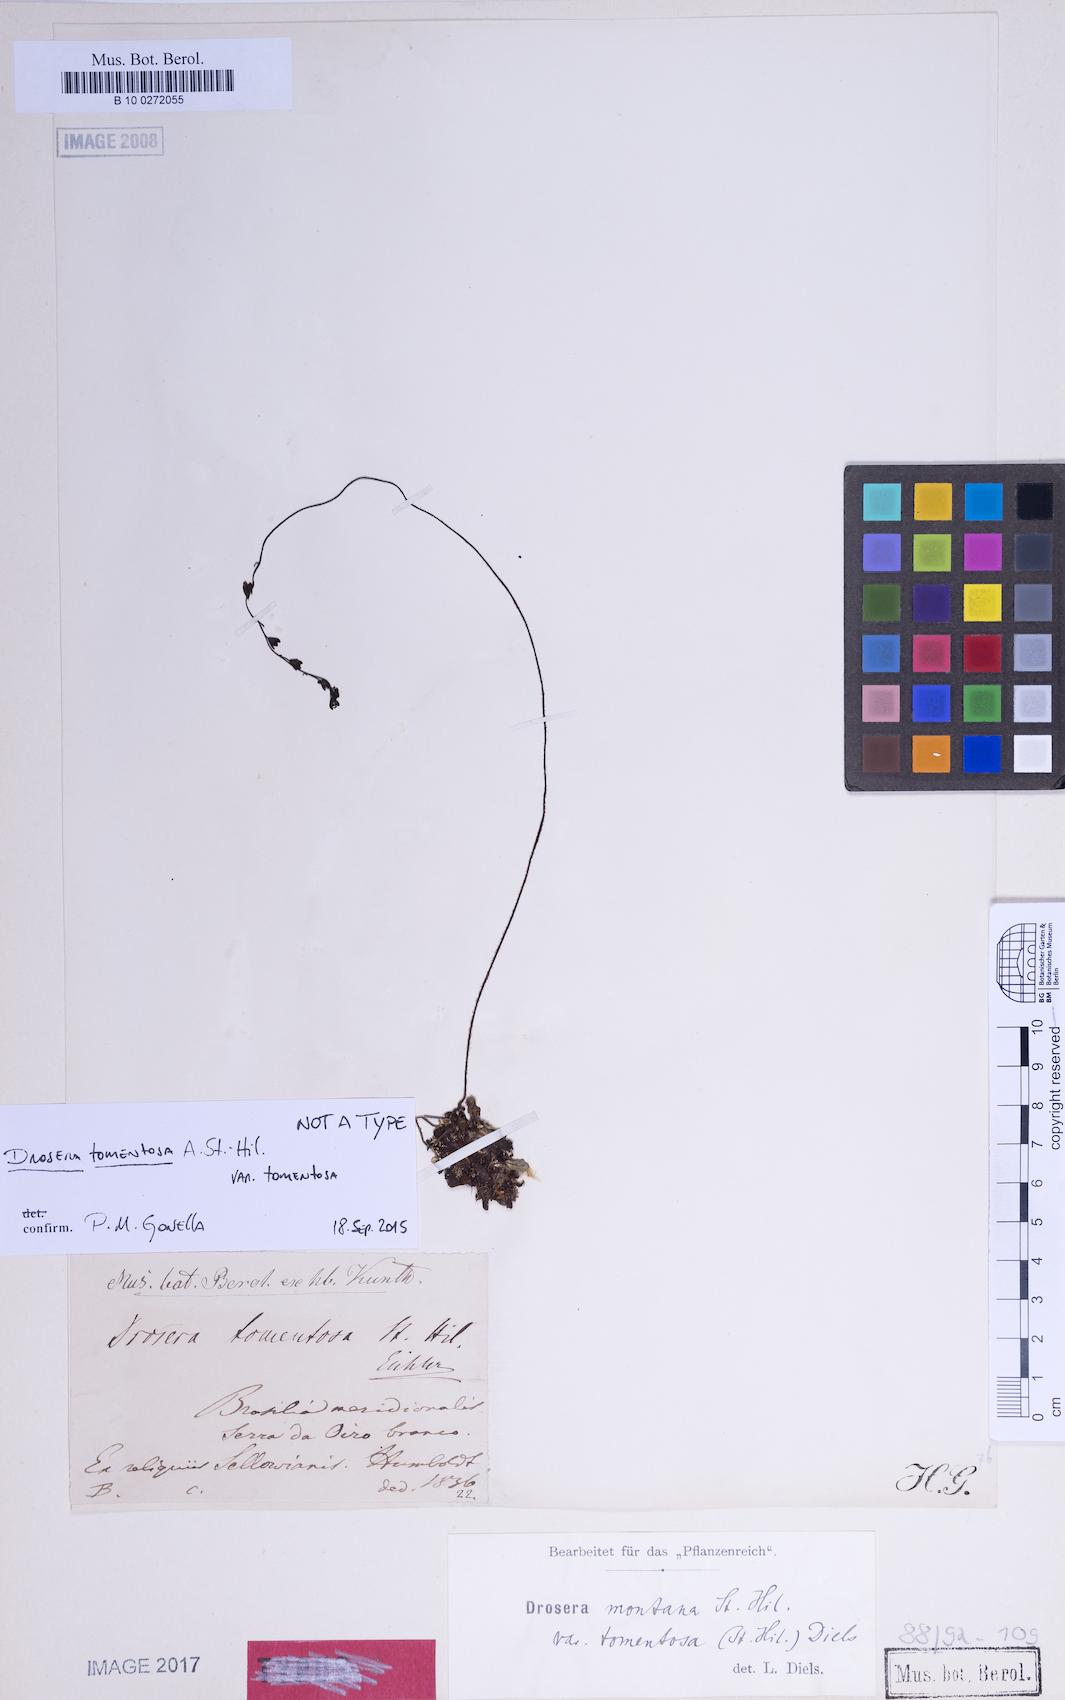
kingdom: Plantae
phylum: Tracheophyta
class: Magnoliopsida
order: Caryophyllales
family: Droseraceae
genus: Drosera
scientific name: Drosera montana
